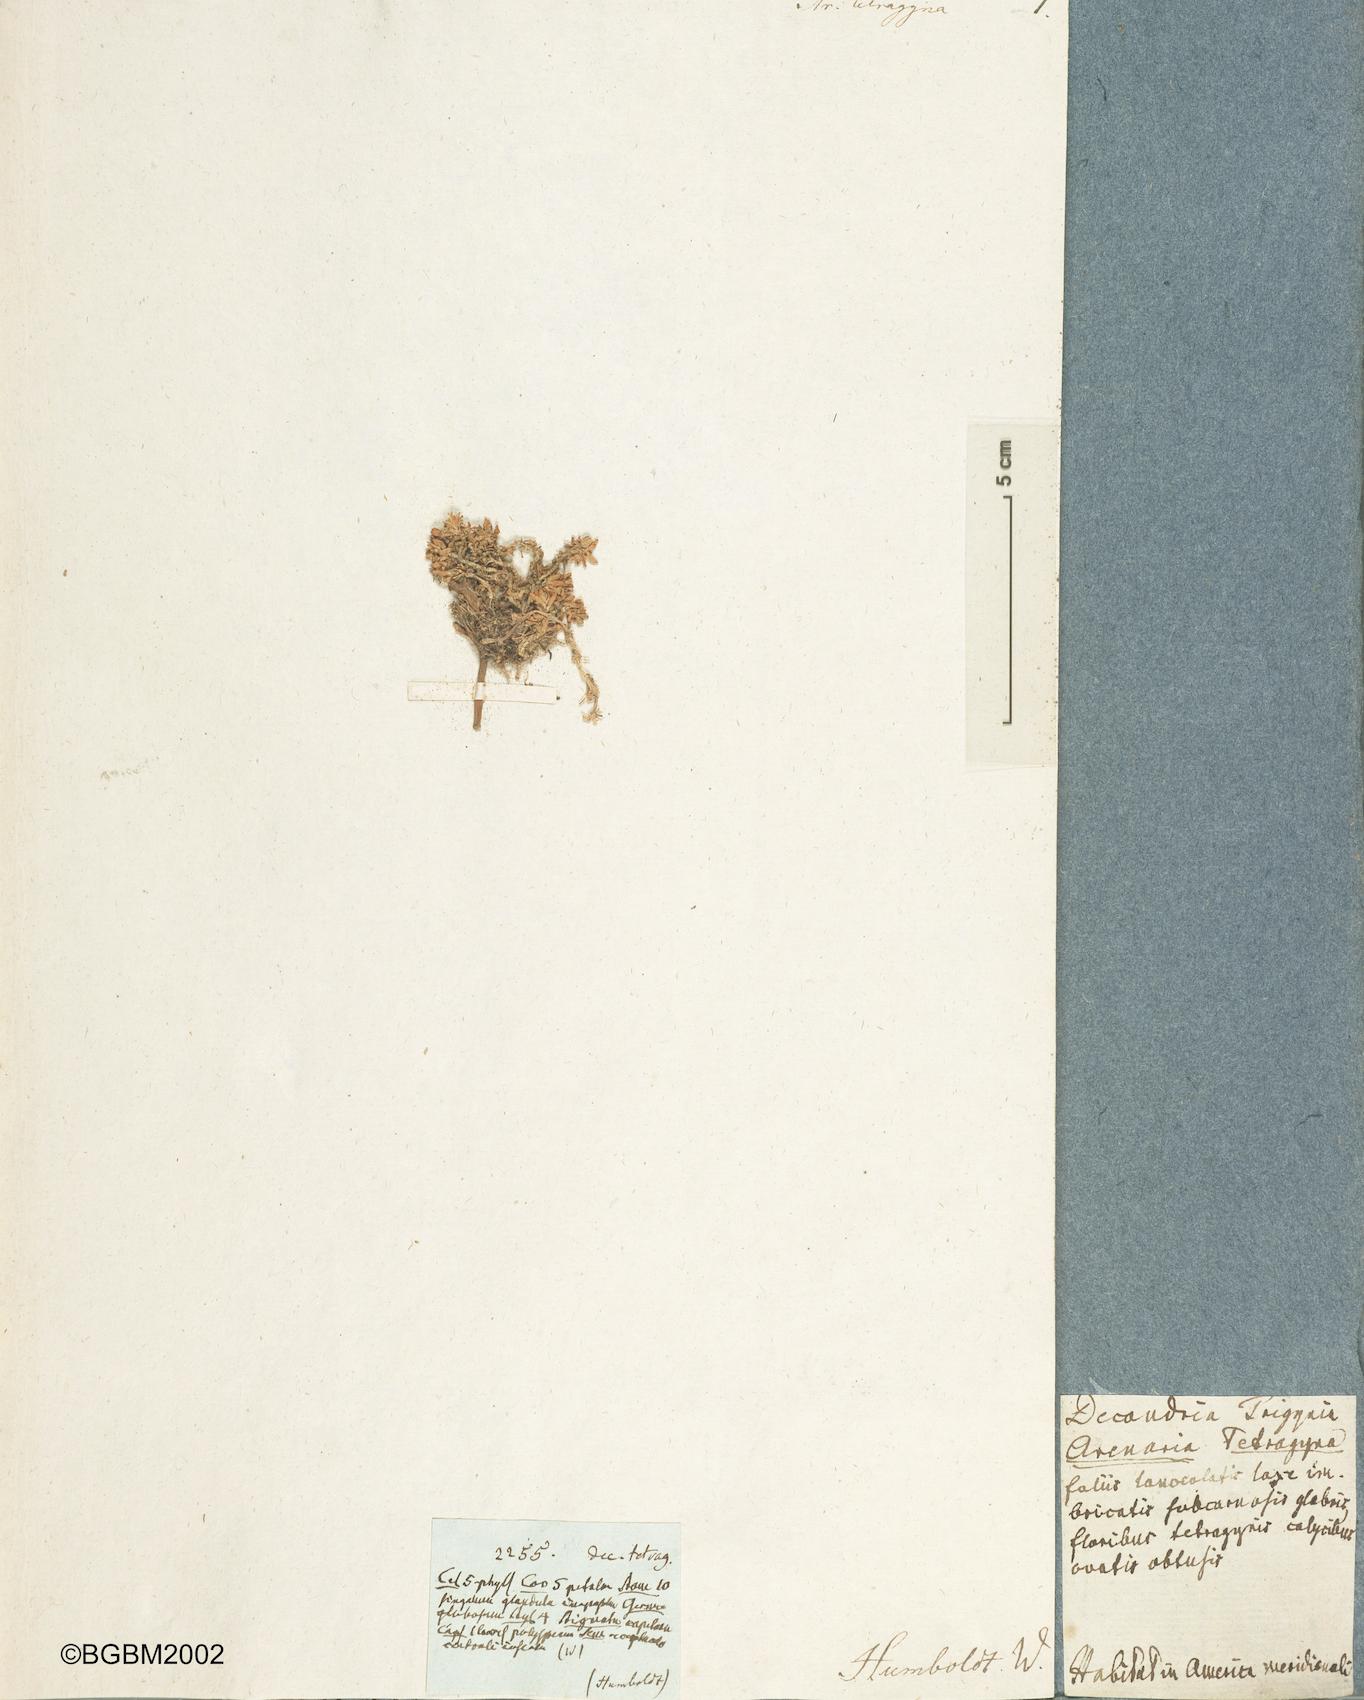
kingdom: Plantae
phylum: Tracheophyta
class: Magnoliopsida
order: Caryophyllales
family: Caryophyllaceae
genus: Arenaria
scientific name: Arenaria tetragyna
